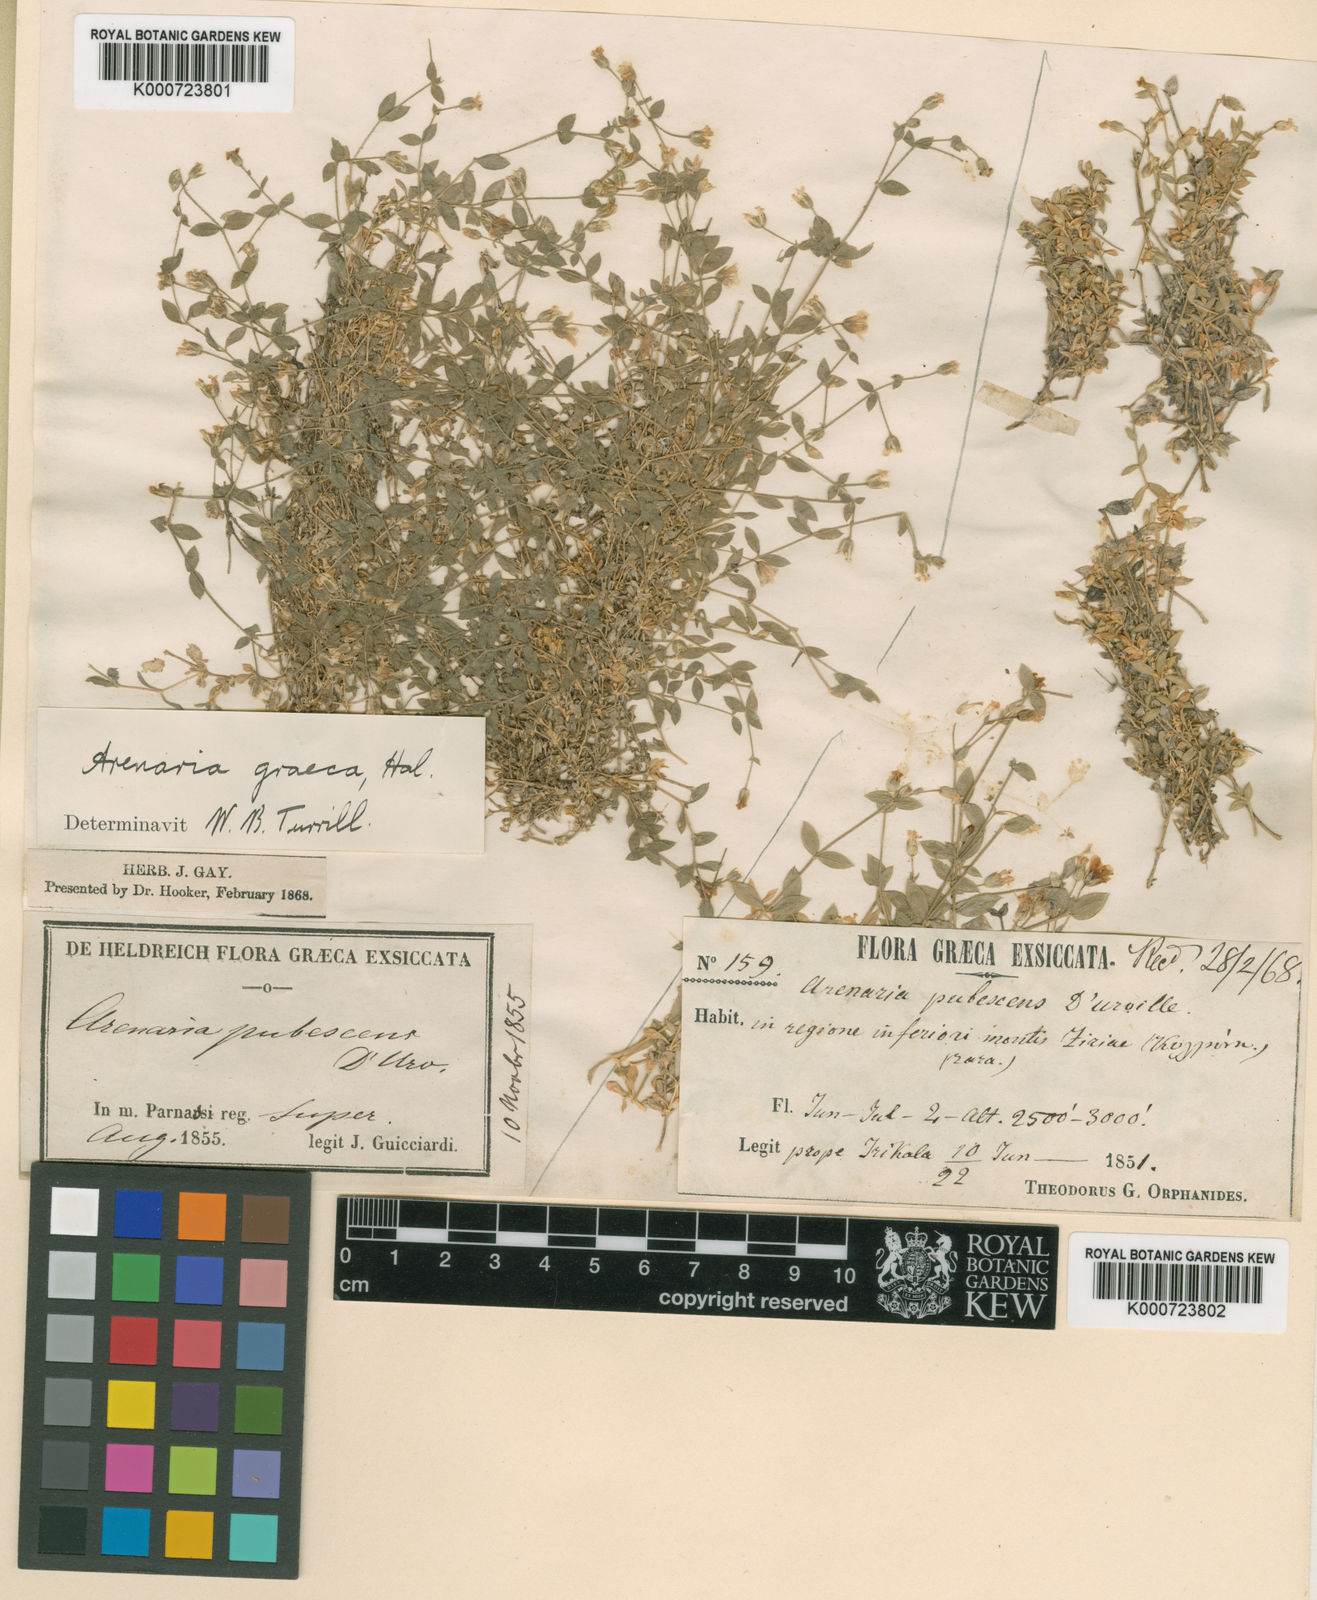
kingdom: Plantae
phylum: Tracheophyta
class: Magnoliopsida
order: Caryophyllales
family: Caryophyllaceae
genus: Arenaria
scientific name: Arenaria
